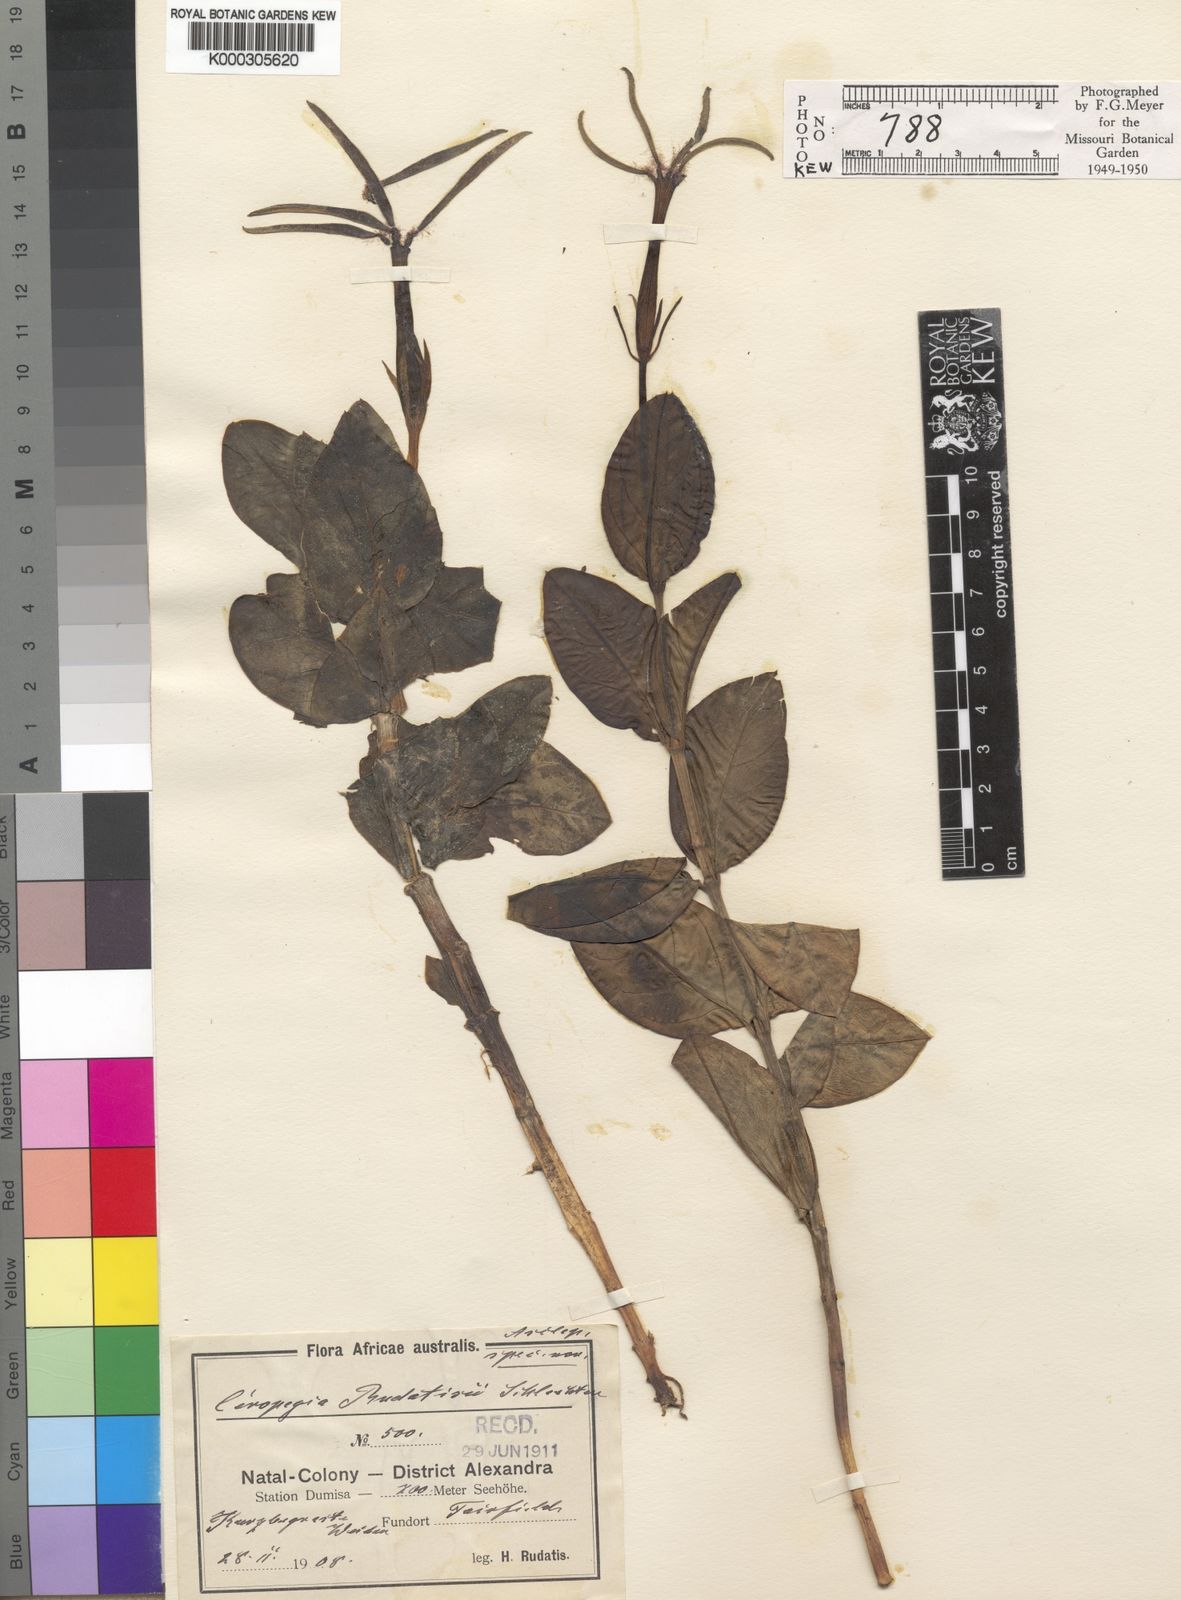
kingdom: Plantae
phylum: Tracheophyta
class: Magnoliopsida
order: Gentianales
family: Apocynaceae
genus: Ceropegia
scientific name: Ceropegia rudatisii
